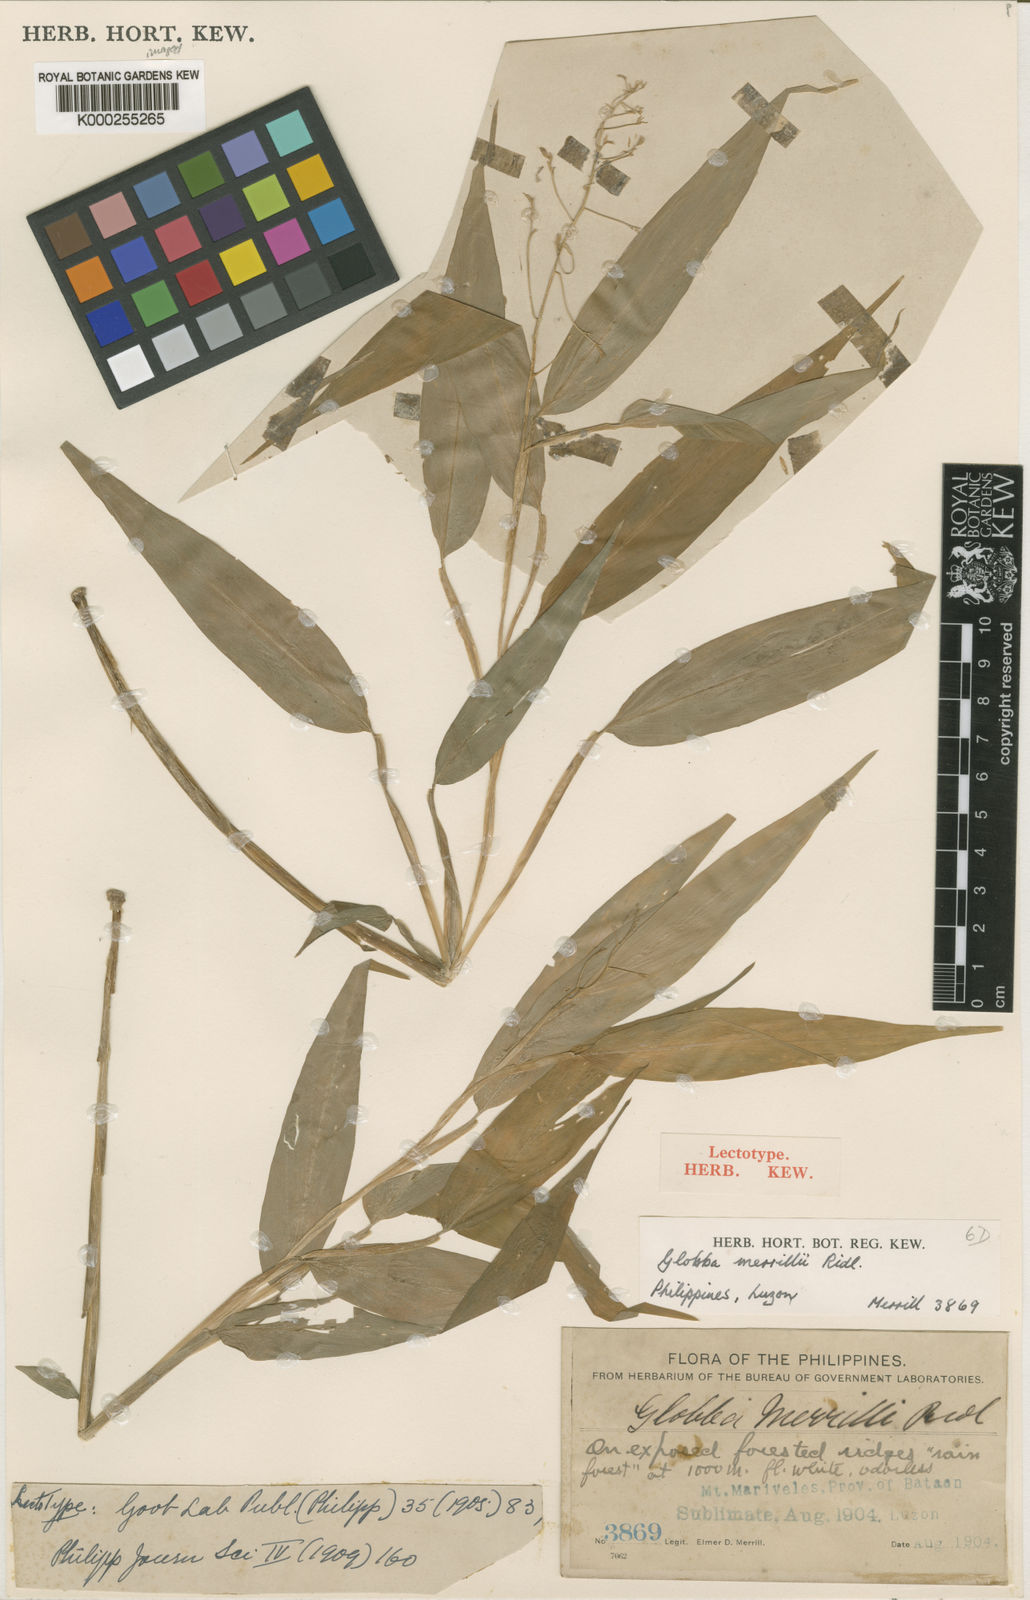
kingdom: Plantae
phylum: Tracheophyta
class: Liliopsida
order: Zingiberales
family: Zingiberaceae
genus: Globba
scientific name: Globba campsophylla
